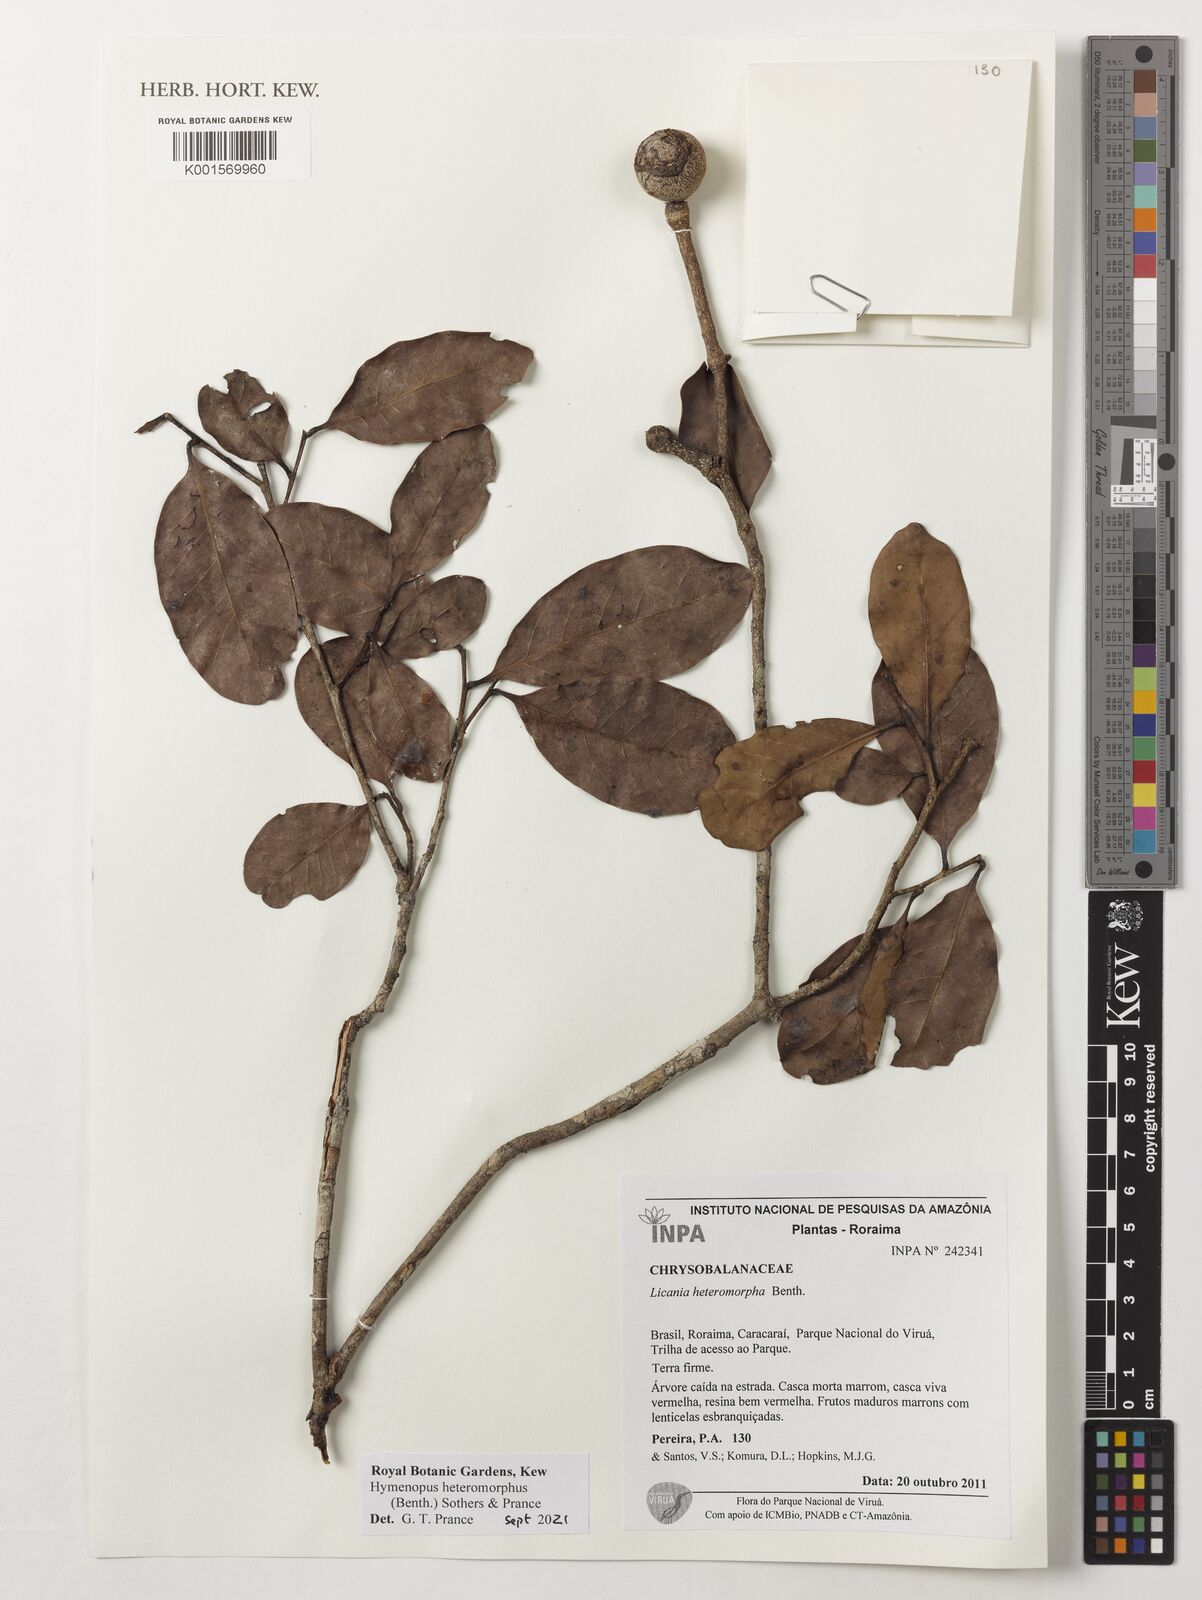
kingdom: Plantae
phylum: Tracheophyta
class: Magnoliopsida
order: Malpighiales
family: Chrysobalanaceae
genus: Hymenopus
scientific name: Hymenopus heteromorphus
